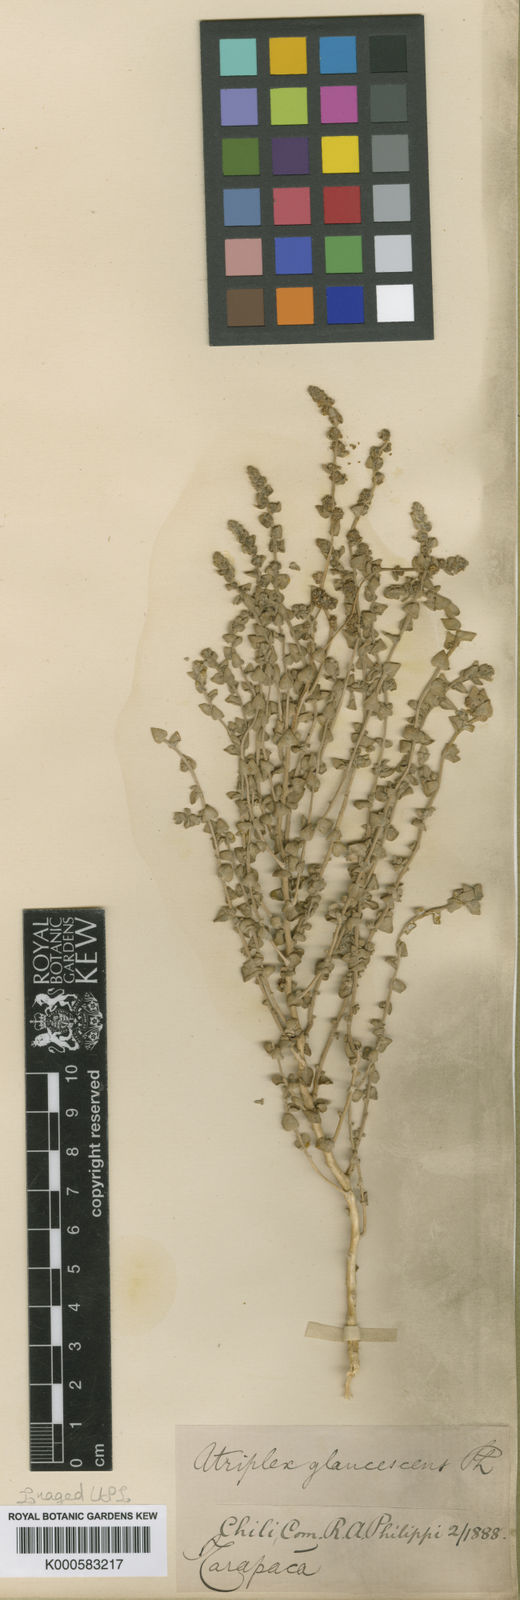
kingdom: Plantae
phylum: Tracheophyta
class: Magnoliopsida
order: Caryophyllales
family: Amaranthaceae
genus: Atriplex
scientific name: Atriplex glaucescens
